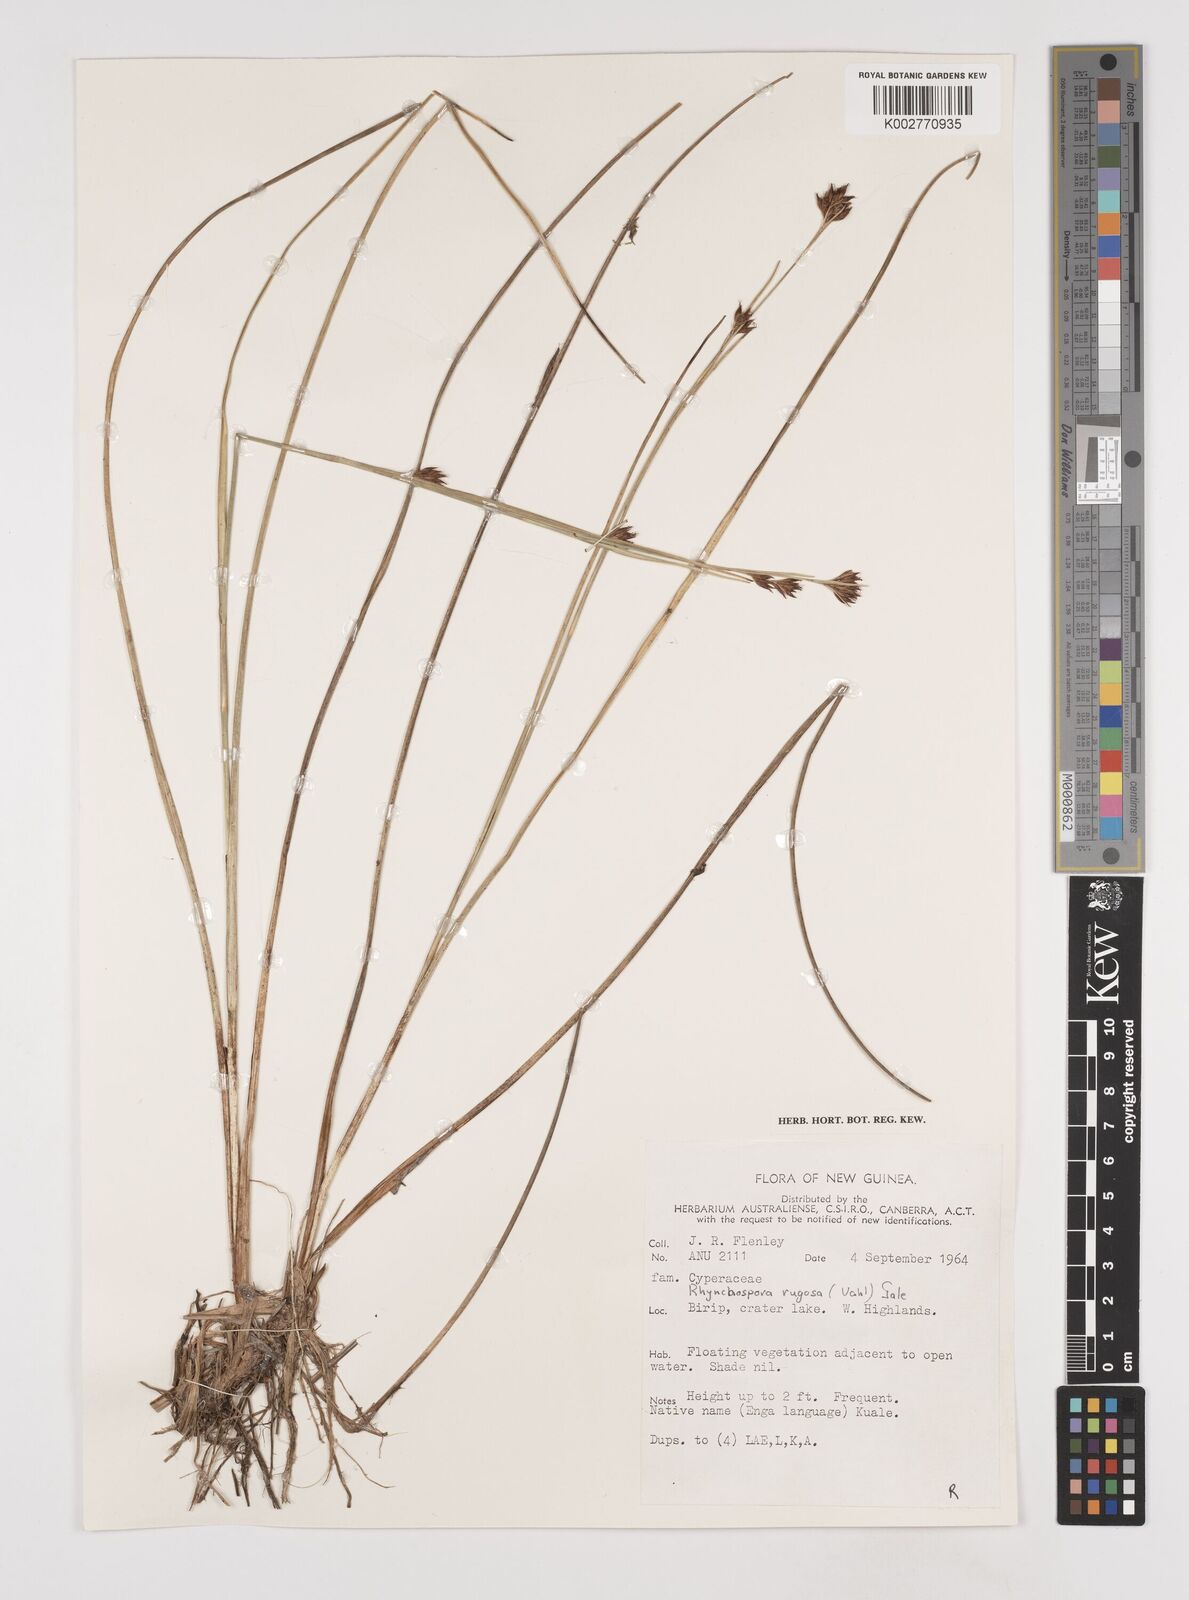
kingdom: Plantae
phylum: Tracheophyta
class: Liliopsida
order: Poales
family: Cyperaceae
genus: Rhynchospora
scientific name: Rhynchospora rugosa
